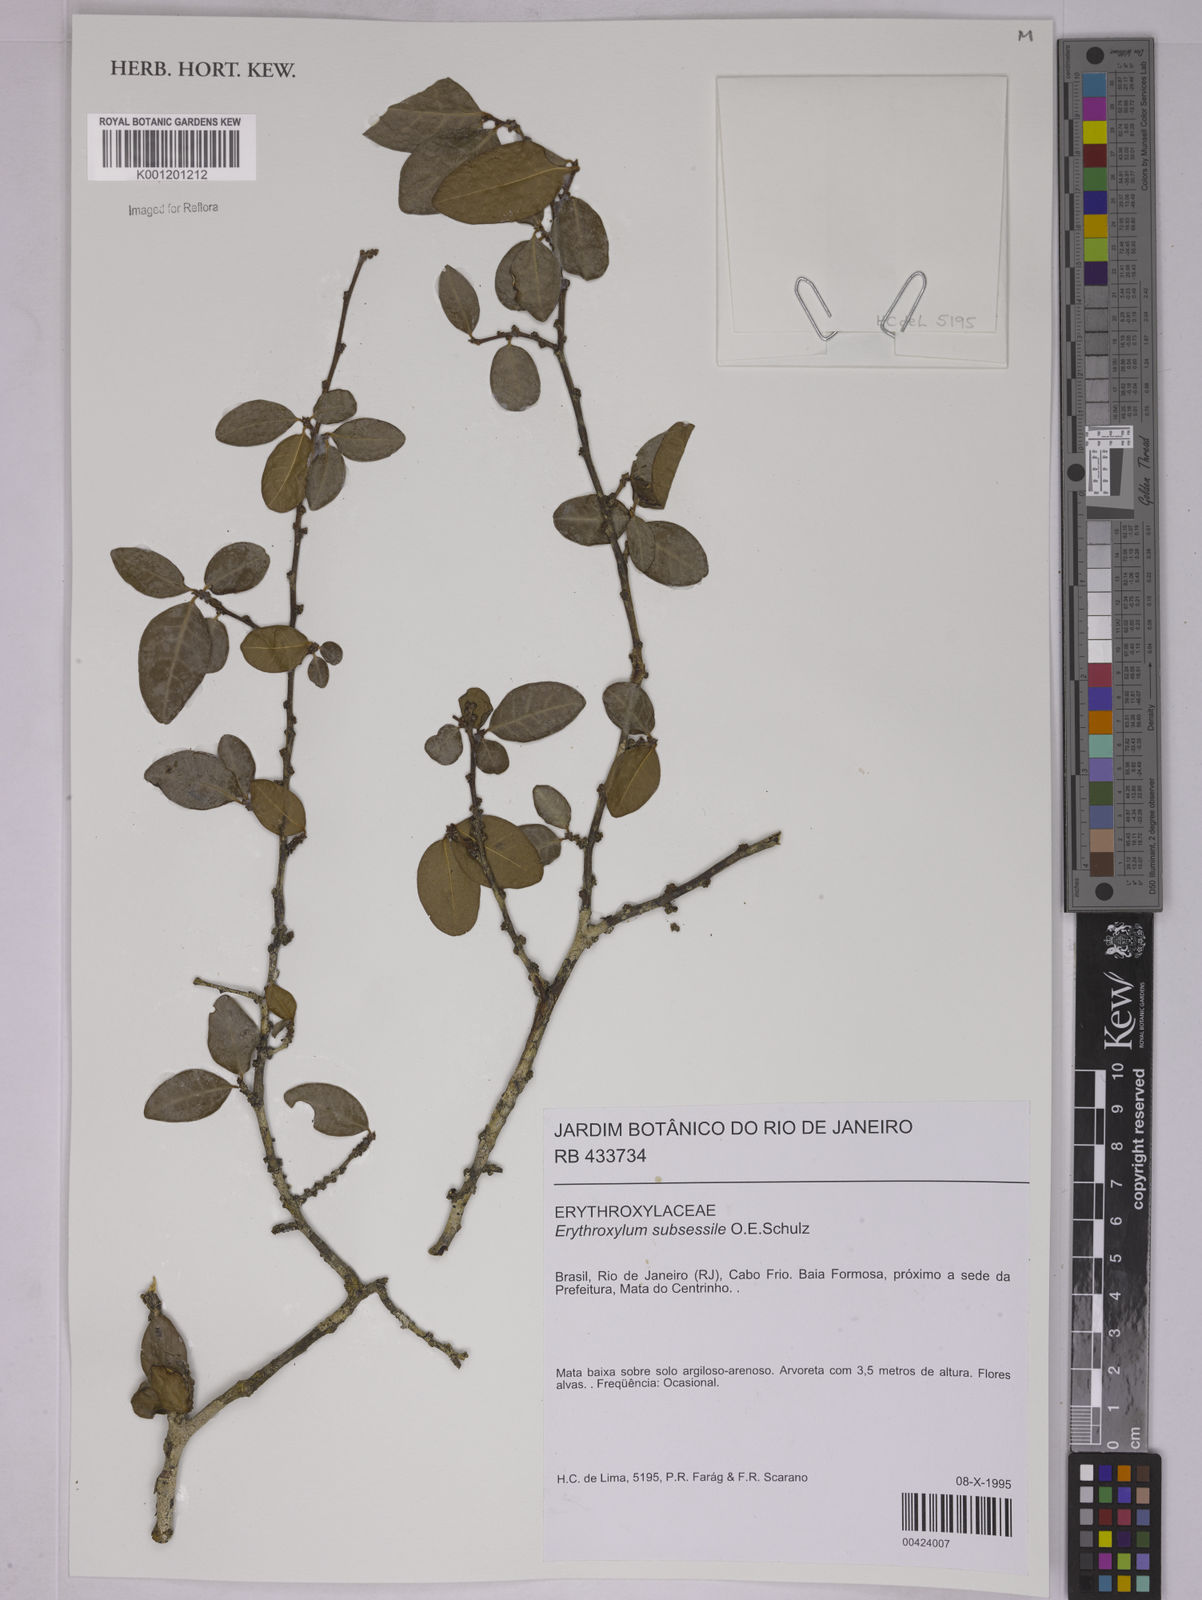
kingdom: Plantae
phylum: Tracheophyta
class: Magnoliopsida
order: Malpighiales
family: Erythroxylaceae
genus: Erythroxylum
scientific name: Erythroxylum macrocalyx
